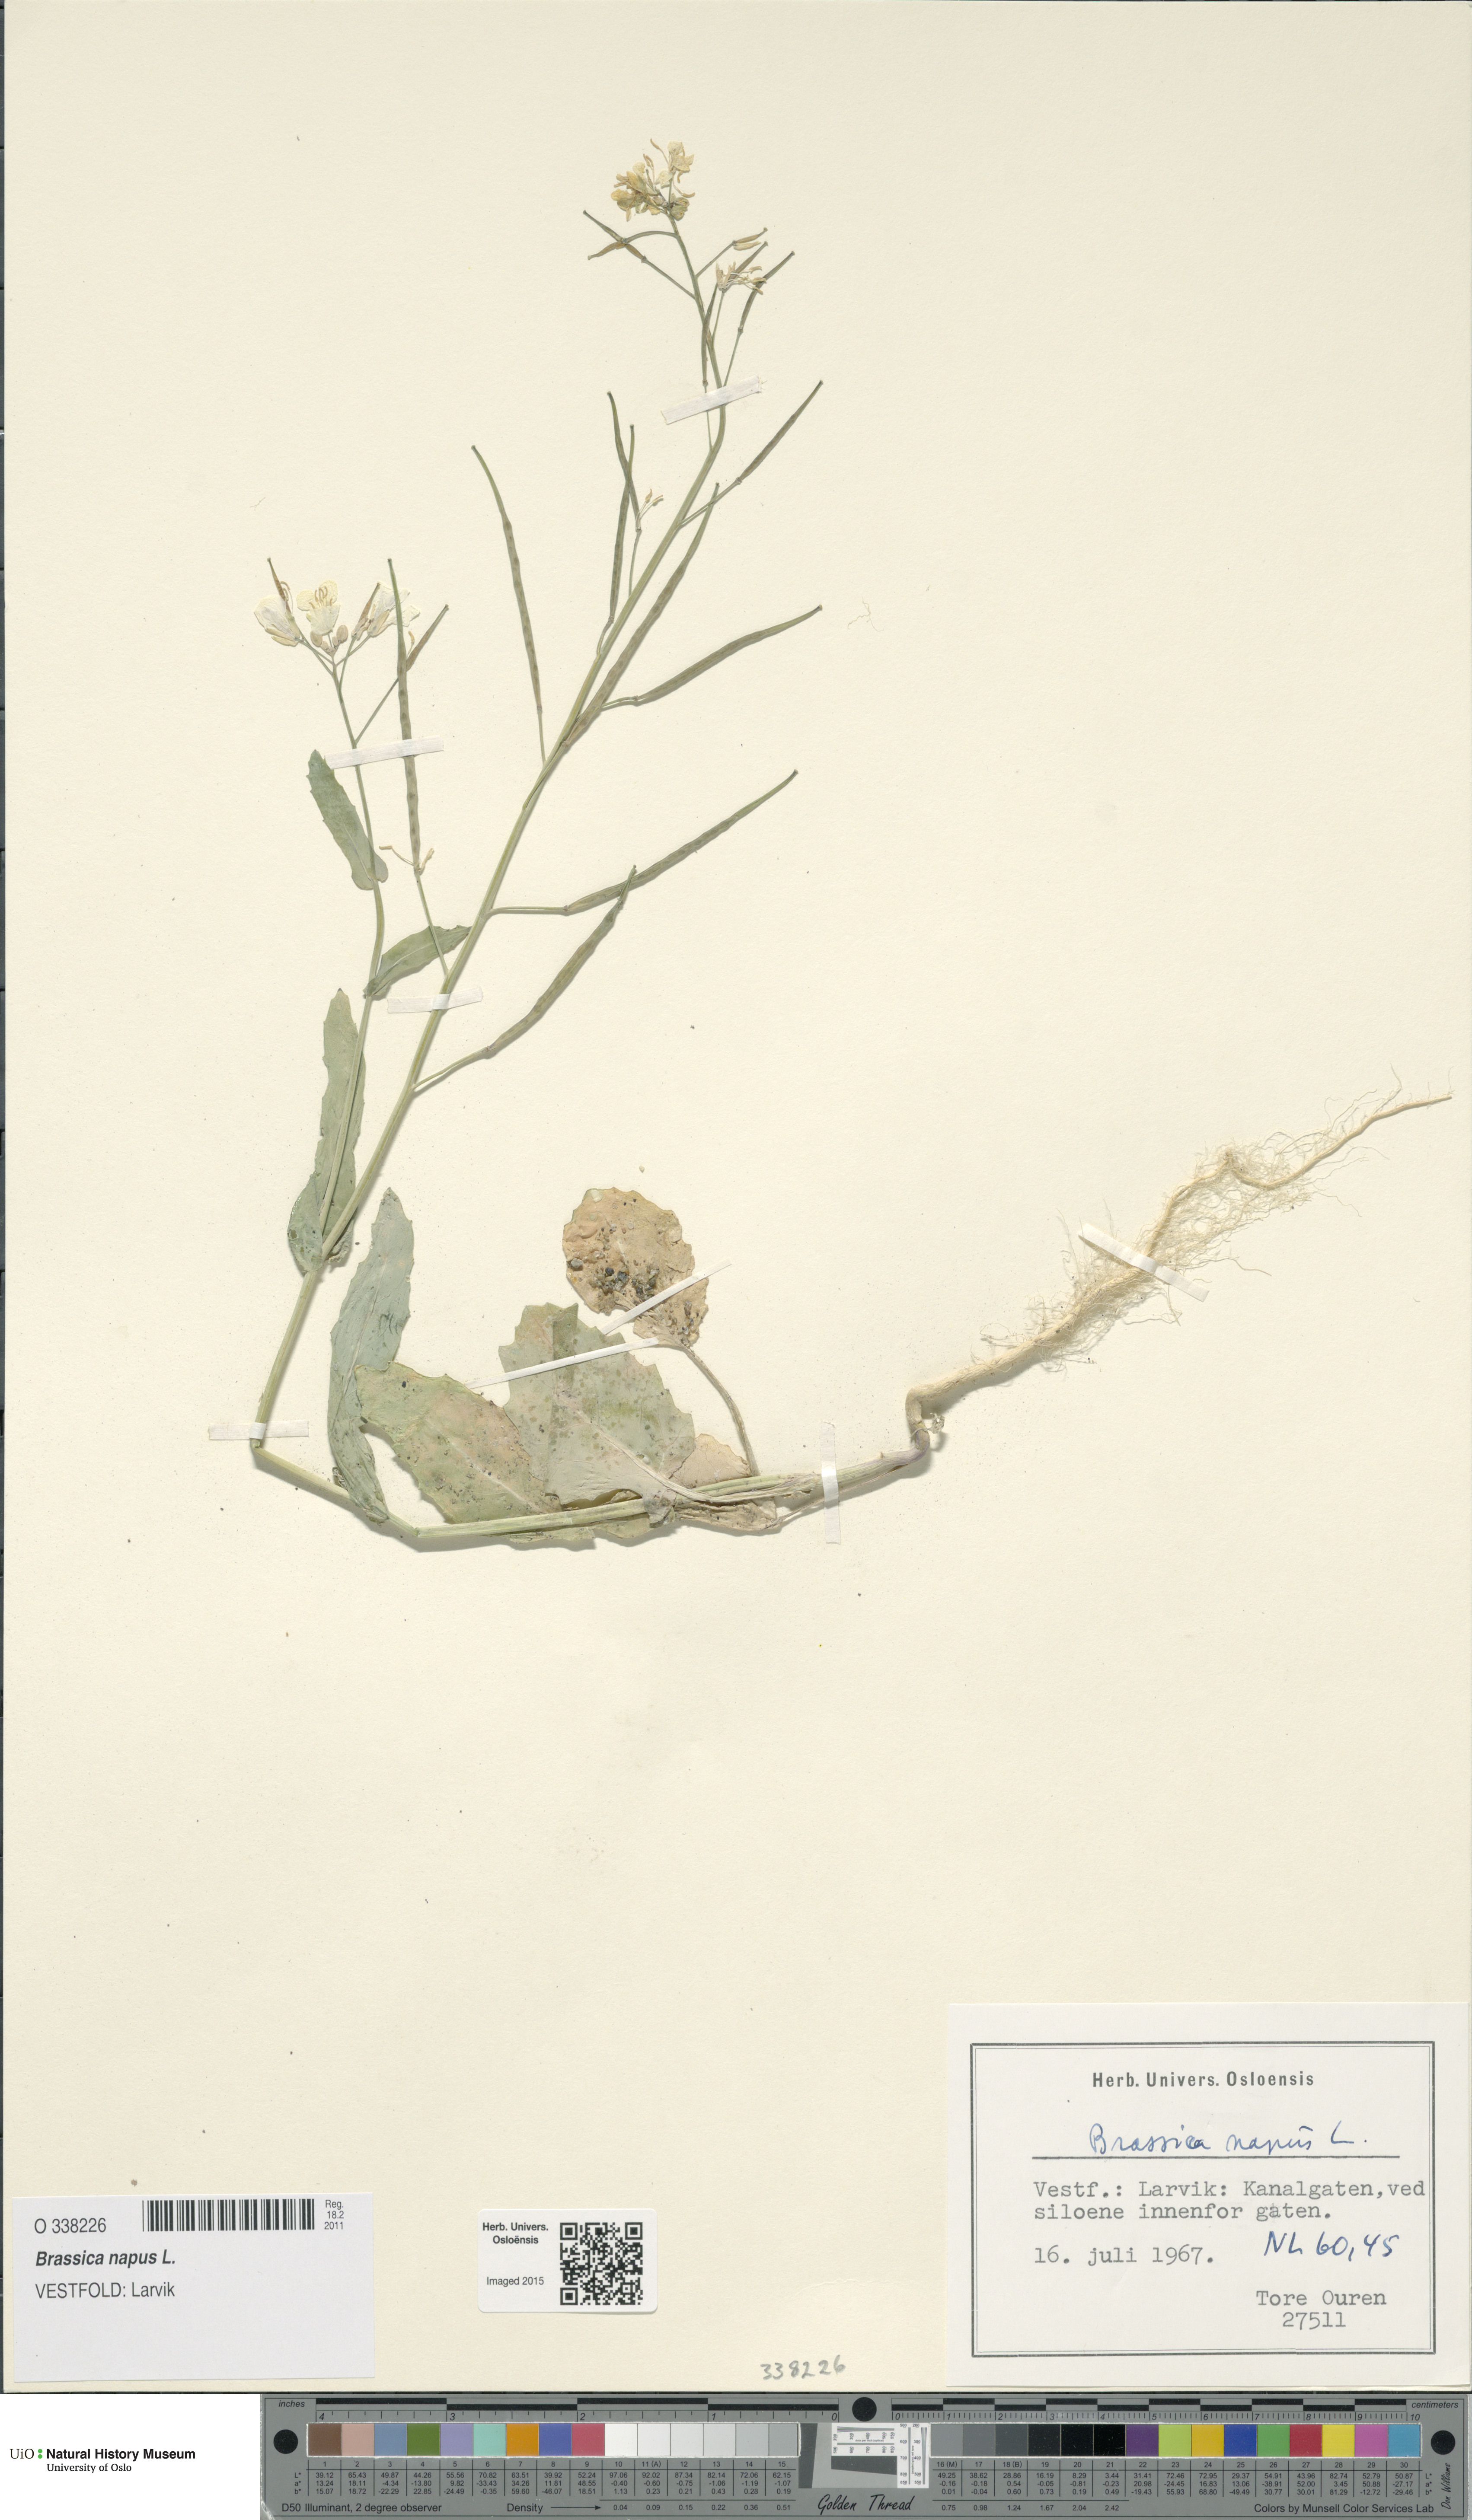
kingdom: Plantae
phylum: Tracheophyta
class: Magnoliopsida
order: Brassicales
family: Brassicaceae
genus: Brassica
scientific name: Brassica napus
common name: Rape
